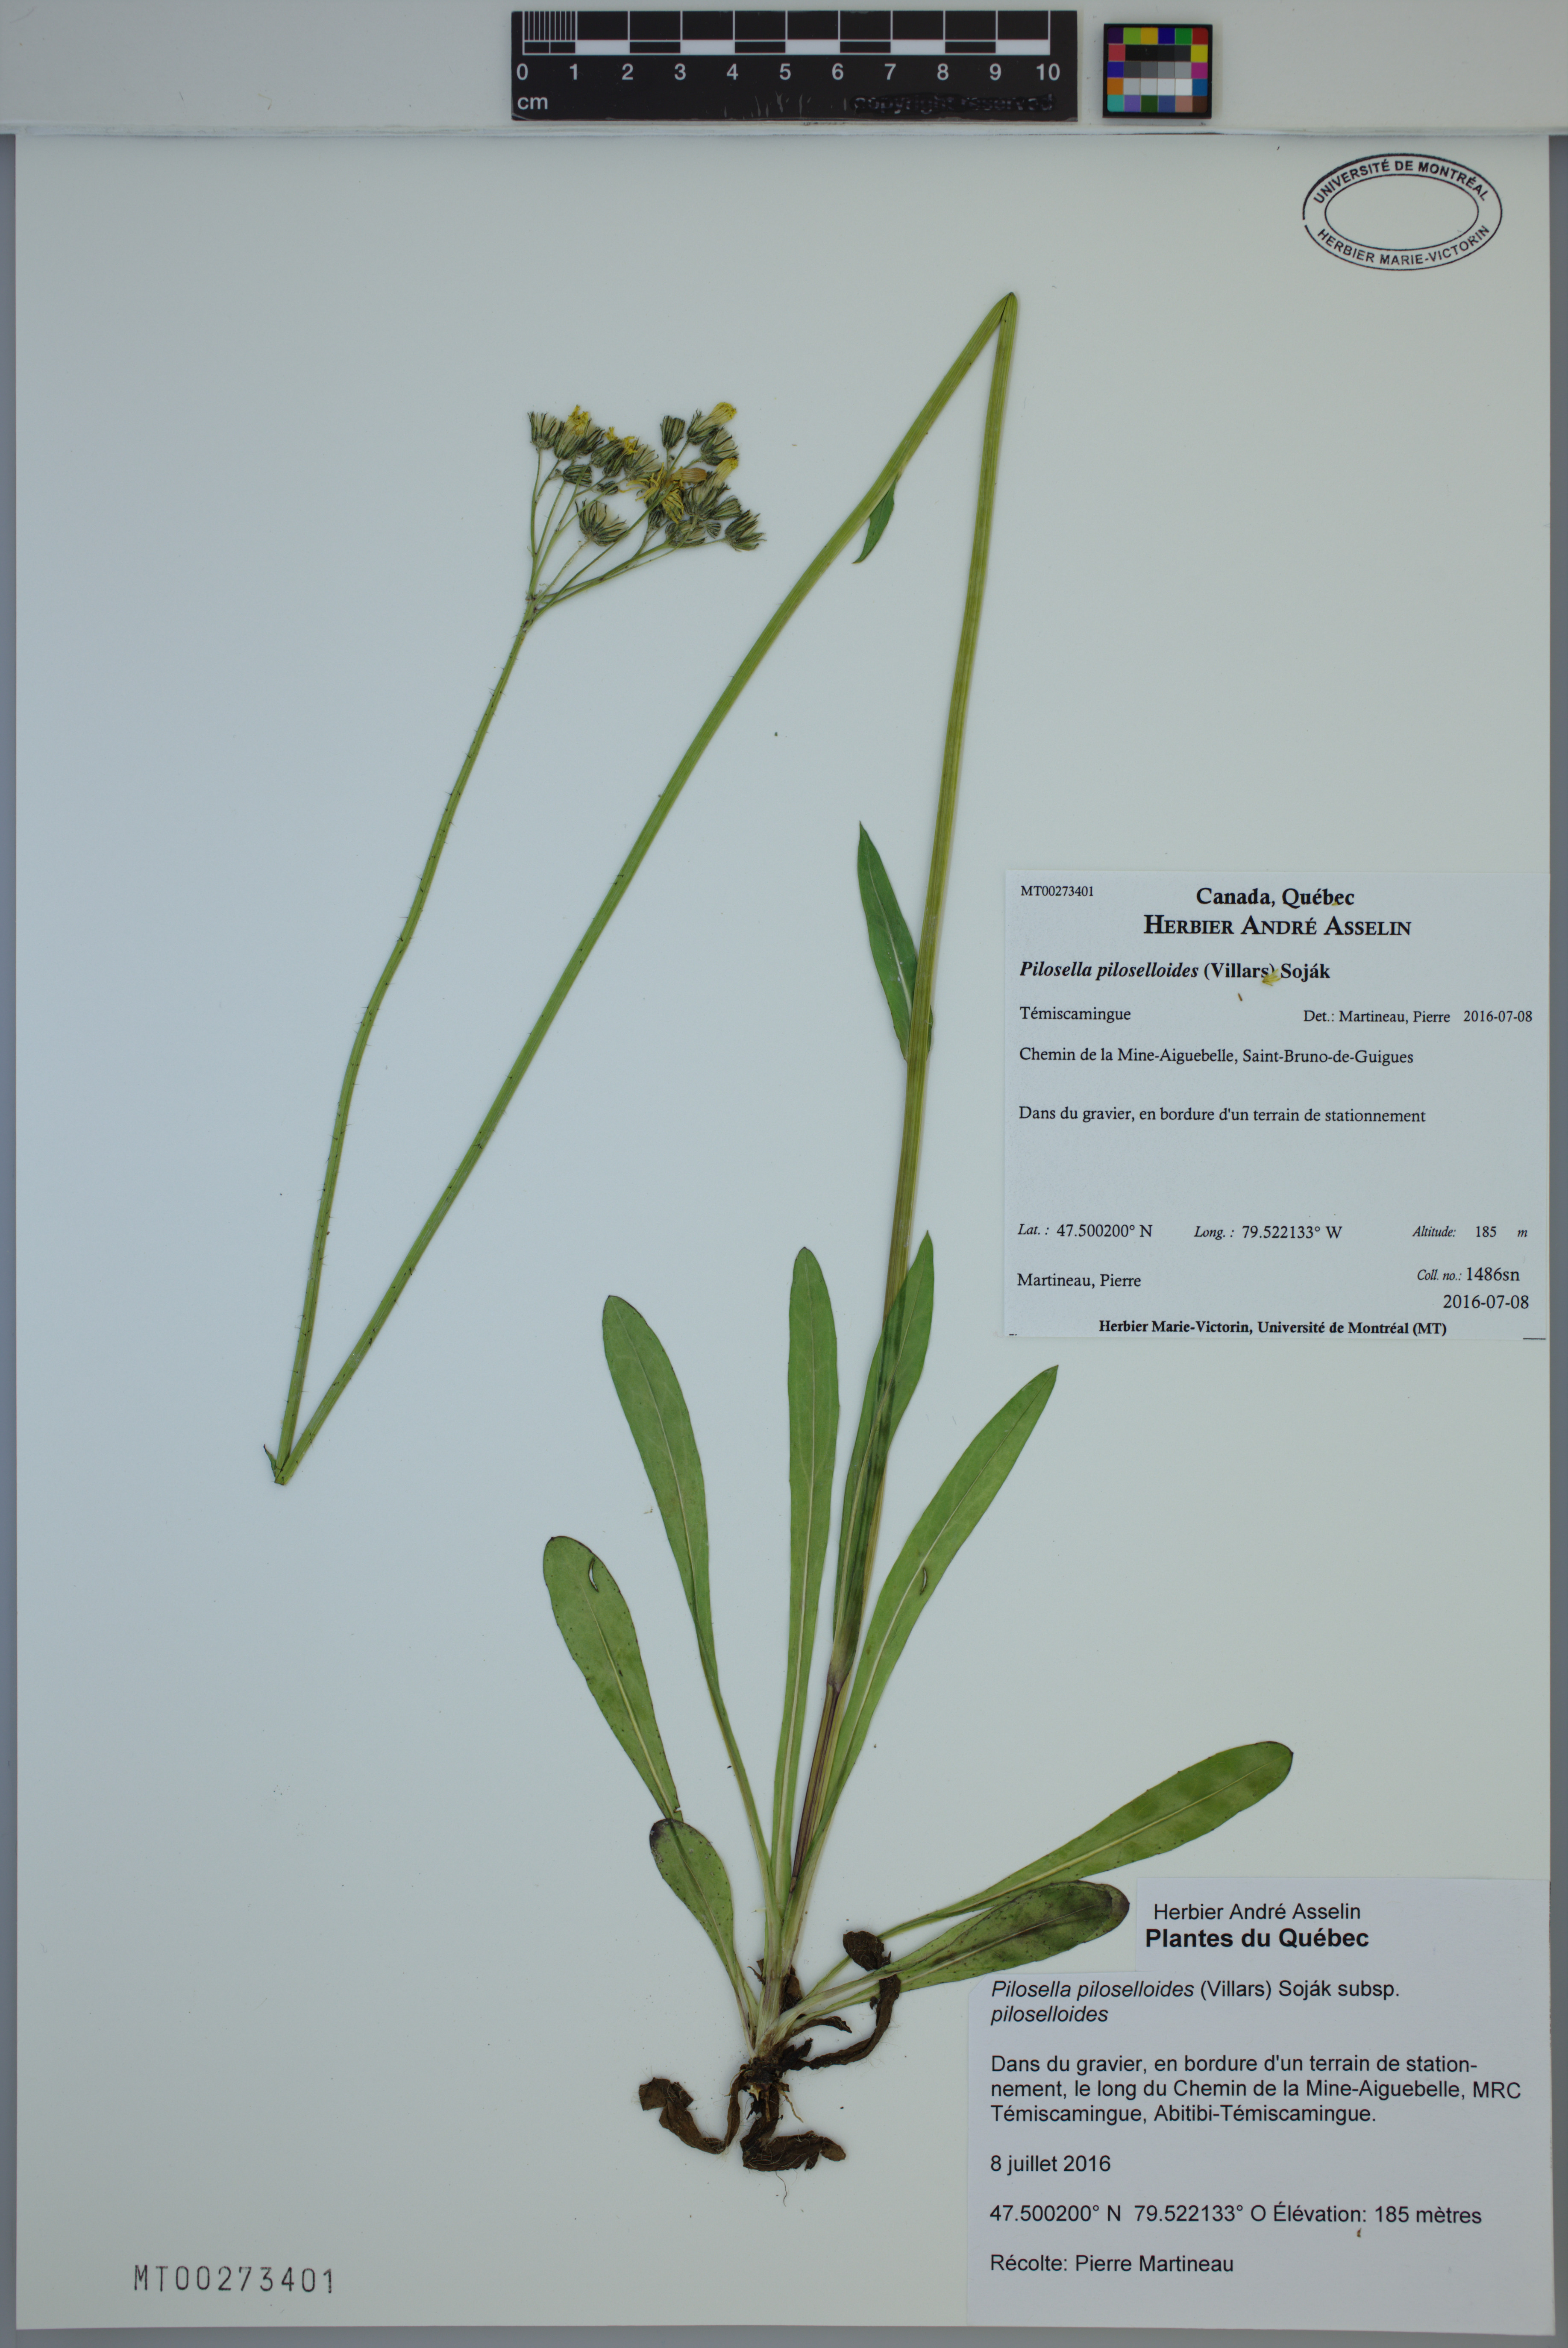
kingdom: Plantae
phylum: Tracheophyta
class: Magnoliopsida
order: Asterales
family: Asteraceae
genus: Pilosella
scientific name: Pilosella piloselloides
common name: Glaucous king-devil
